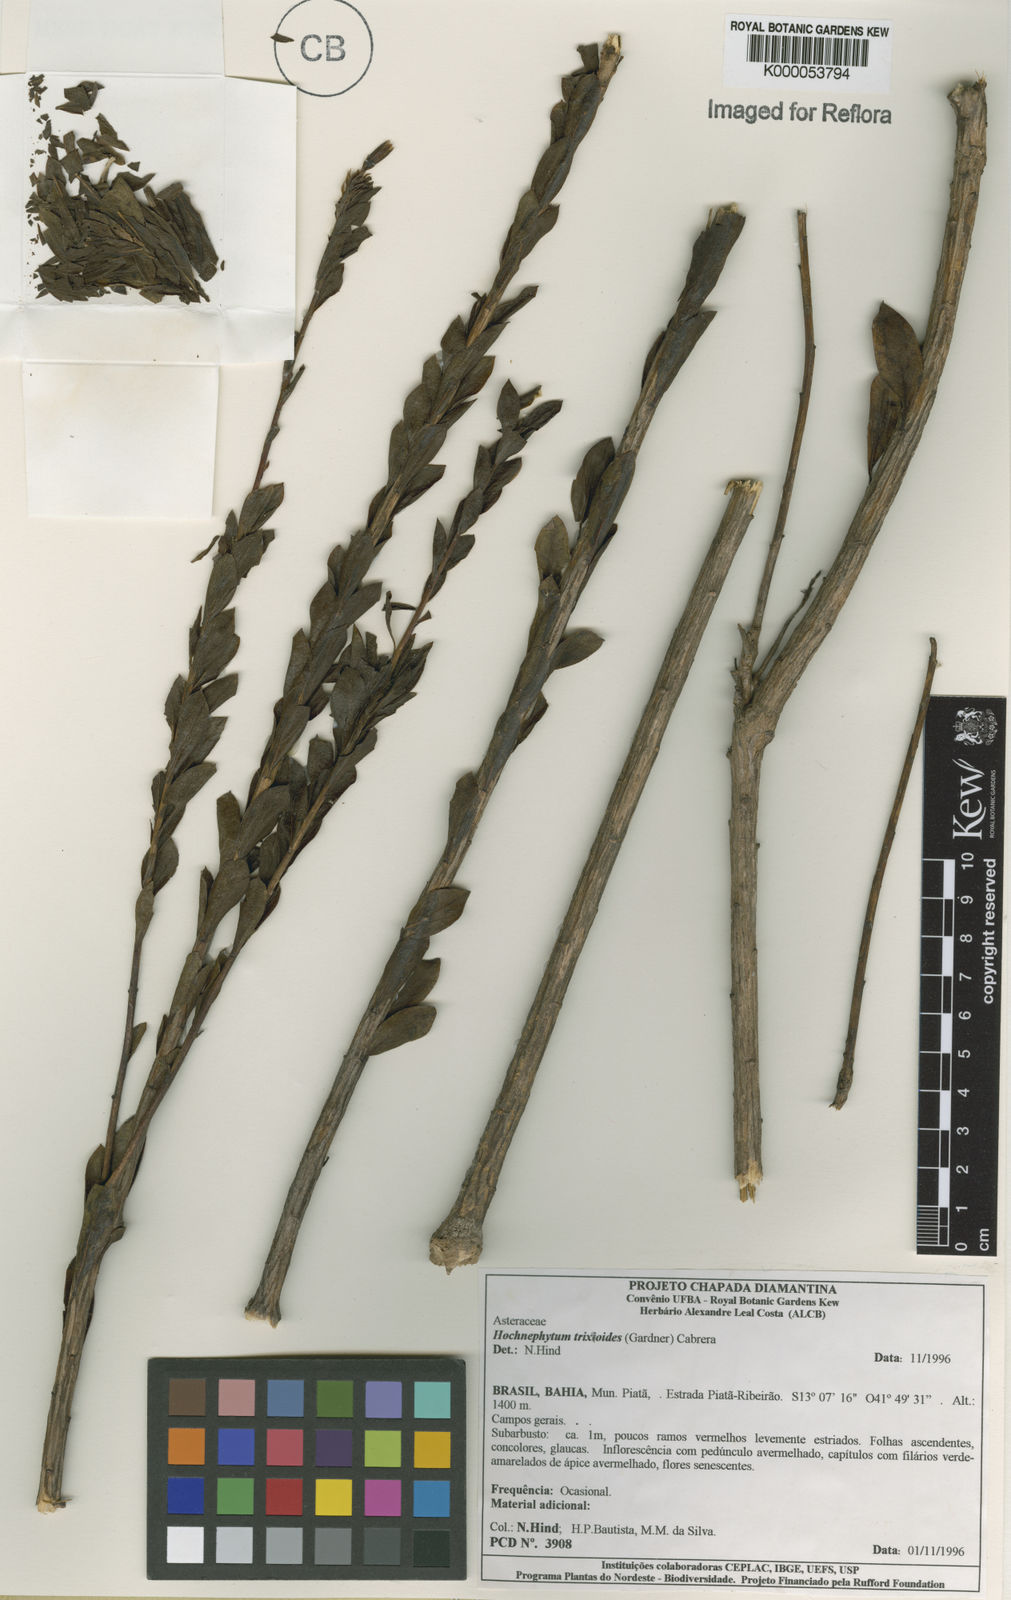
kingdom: Plantae
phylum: Tracheophyta
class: Magnoliopsida
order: Asterales
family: Asteraceae
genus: Hoehnephytum
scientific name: Hoehnephytum trixoides
